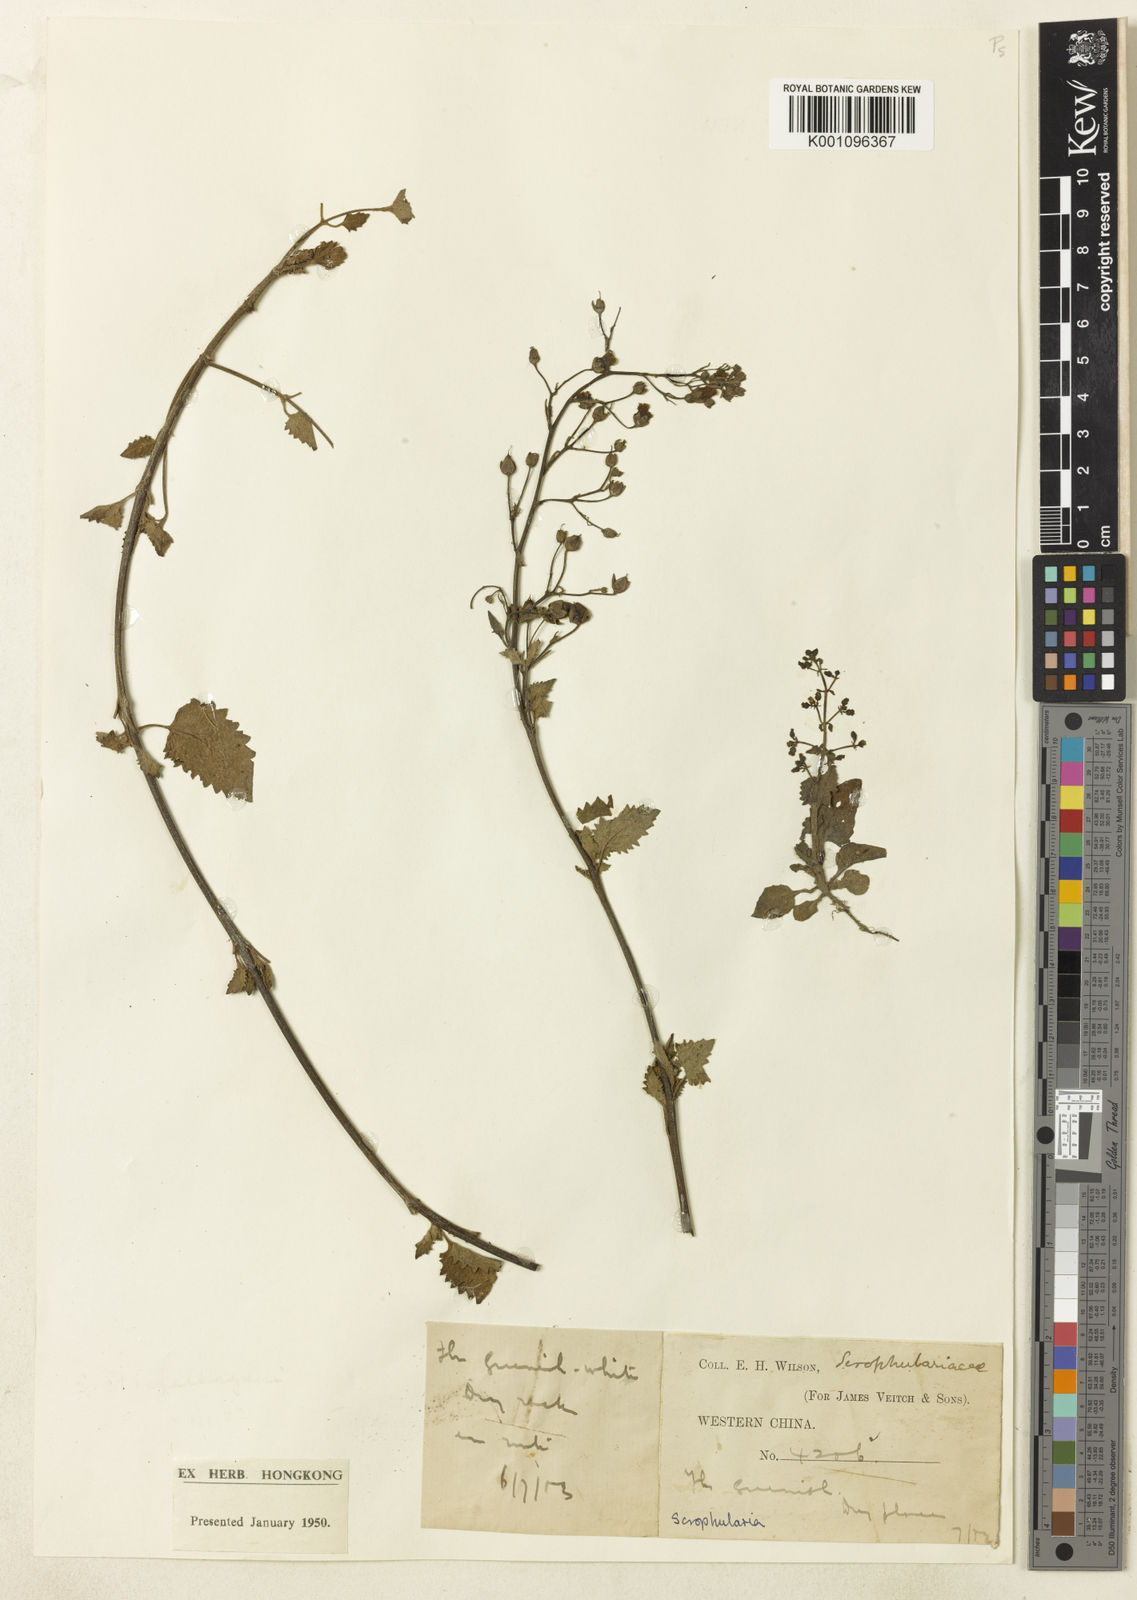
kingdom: Plantae
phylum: Tracheophyta
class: Magnoliopsida
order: Lamiales
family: Scrophulariaceae
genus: Scrophularia
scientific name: Scrophularia mandarinorum
